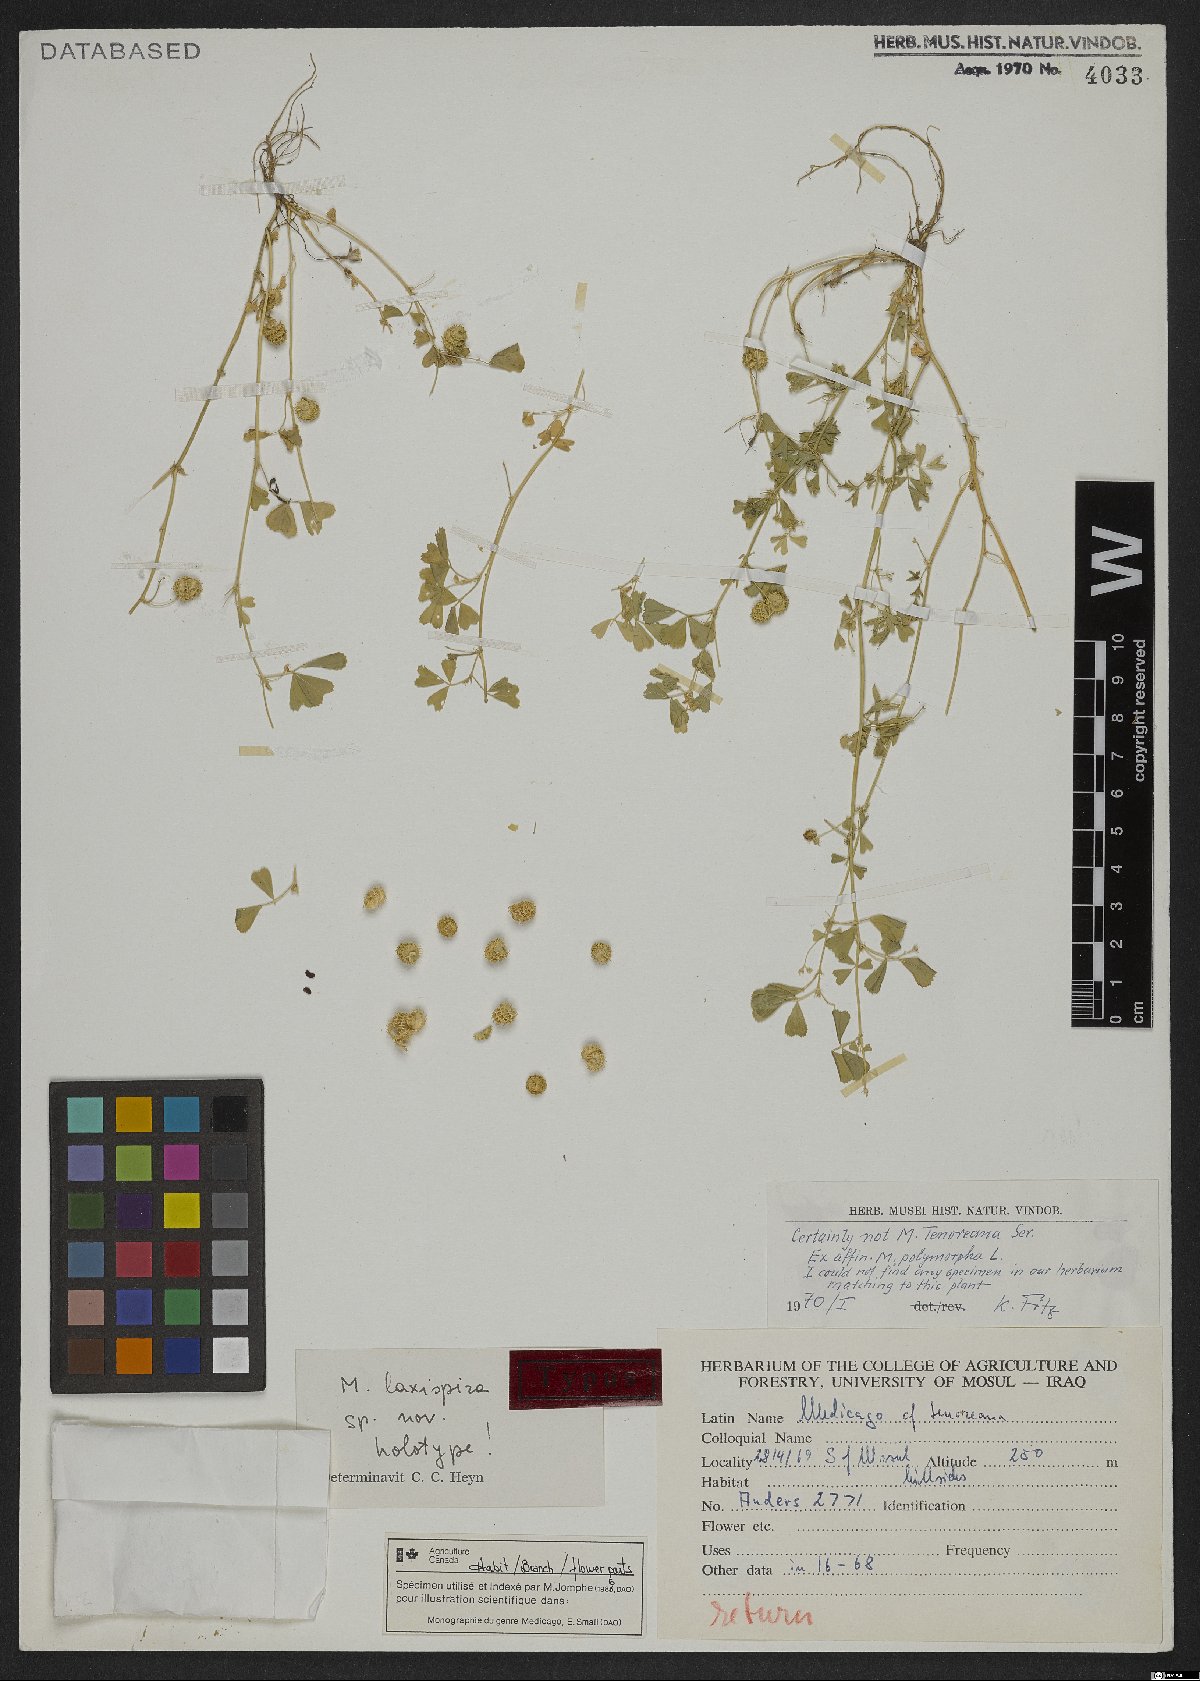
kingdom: Plantae
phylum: Tracheophyta
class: Magnoliopsida
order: Fabales
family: Fabaceae
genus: Medicago
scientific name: Medicago laxispira
